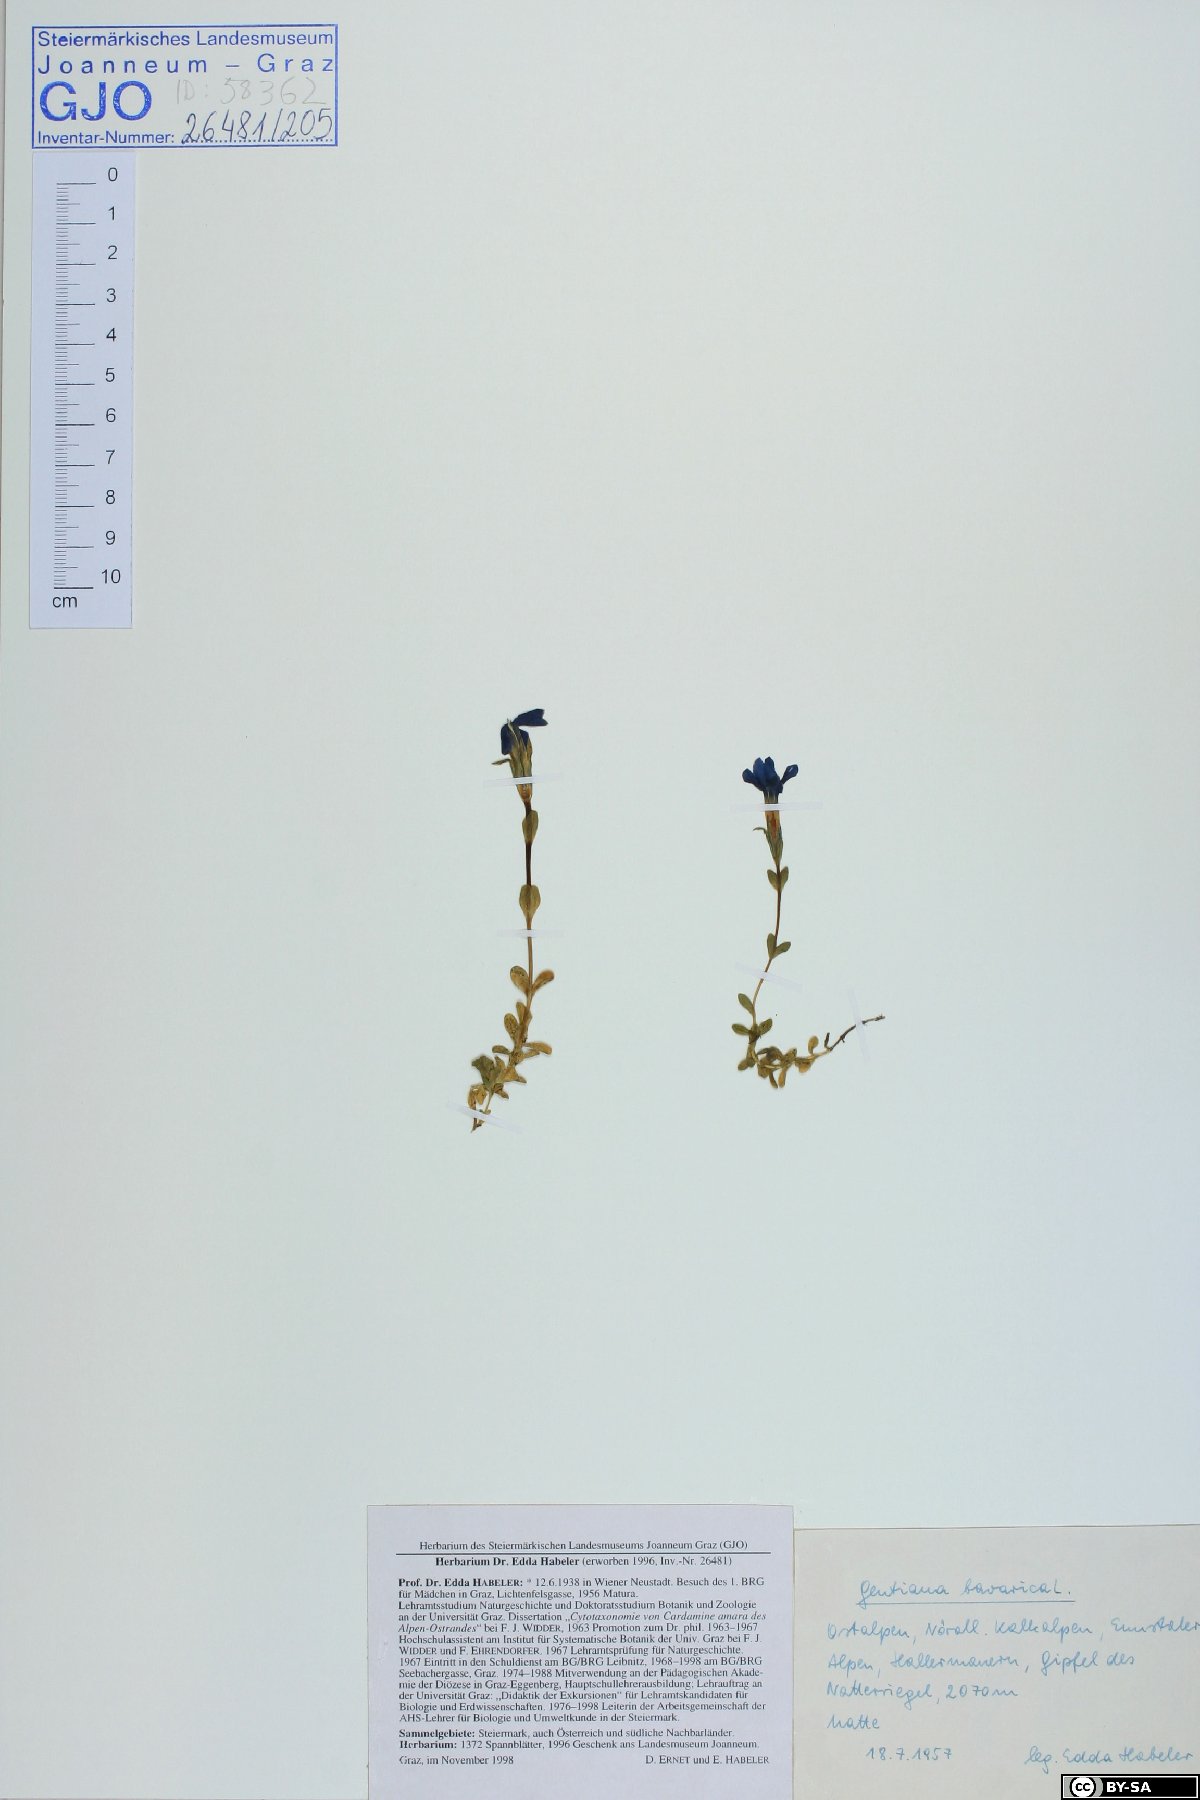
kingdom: Plantae
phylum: Tracheophyta
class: Magnoliopsida
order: Gentianales
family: Gentianaceae
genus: Gentiana
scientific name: Gentiana bavarica
